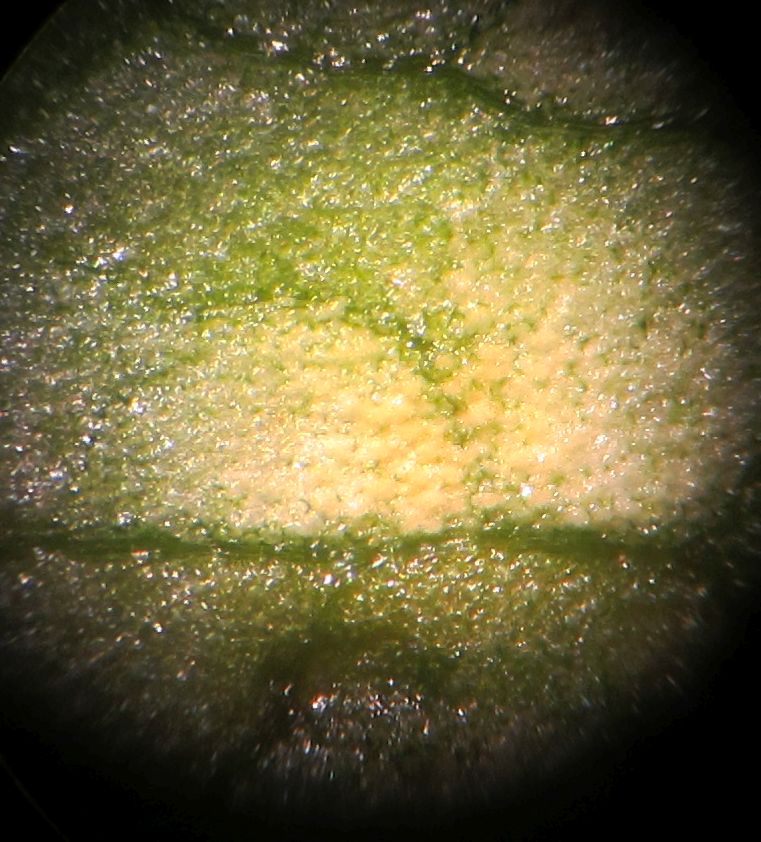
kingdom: Fungi
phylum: Basidiomycota
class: Exobasidiomycetes
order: Entylomatales
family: Entylomataceae
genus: Entyloma
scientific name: Entyloma ficariae
